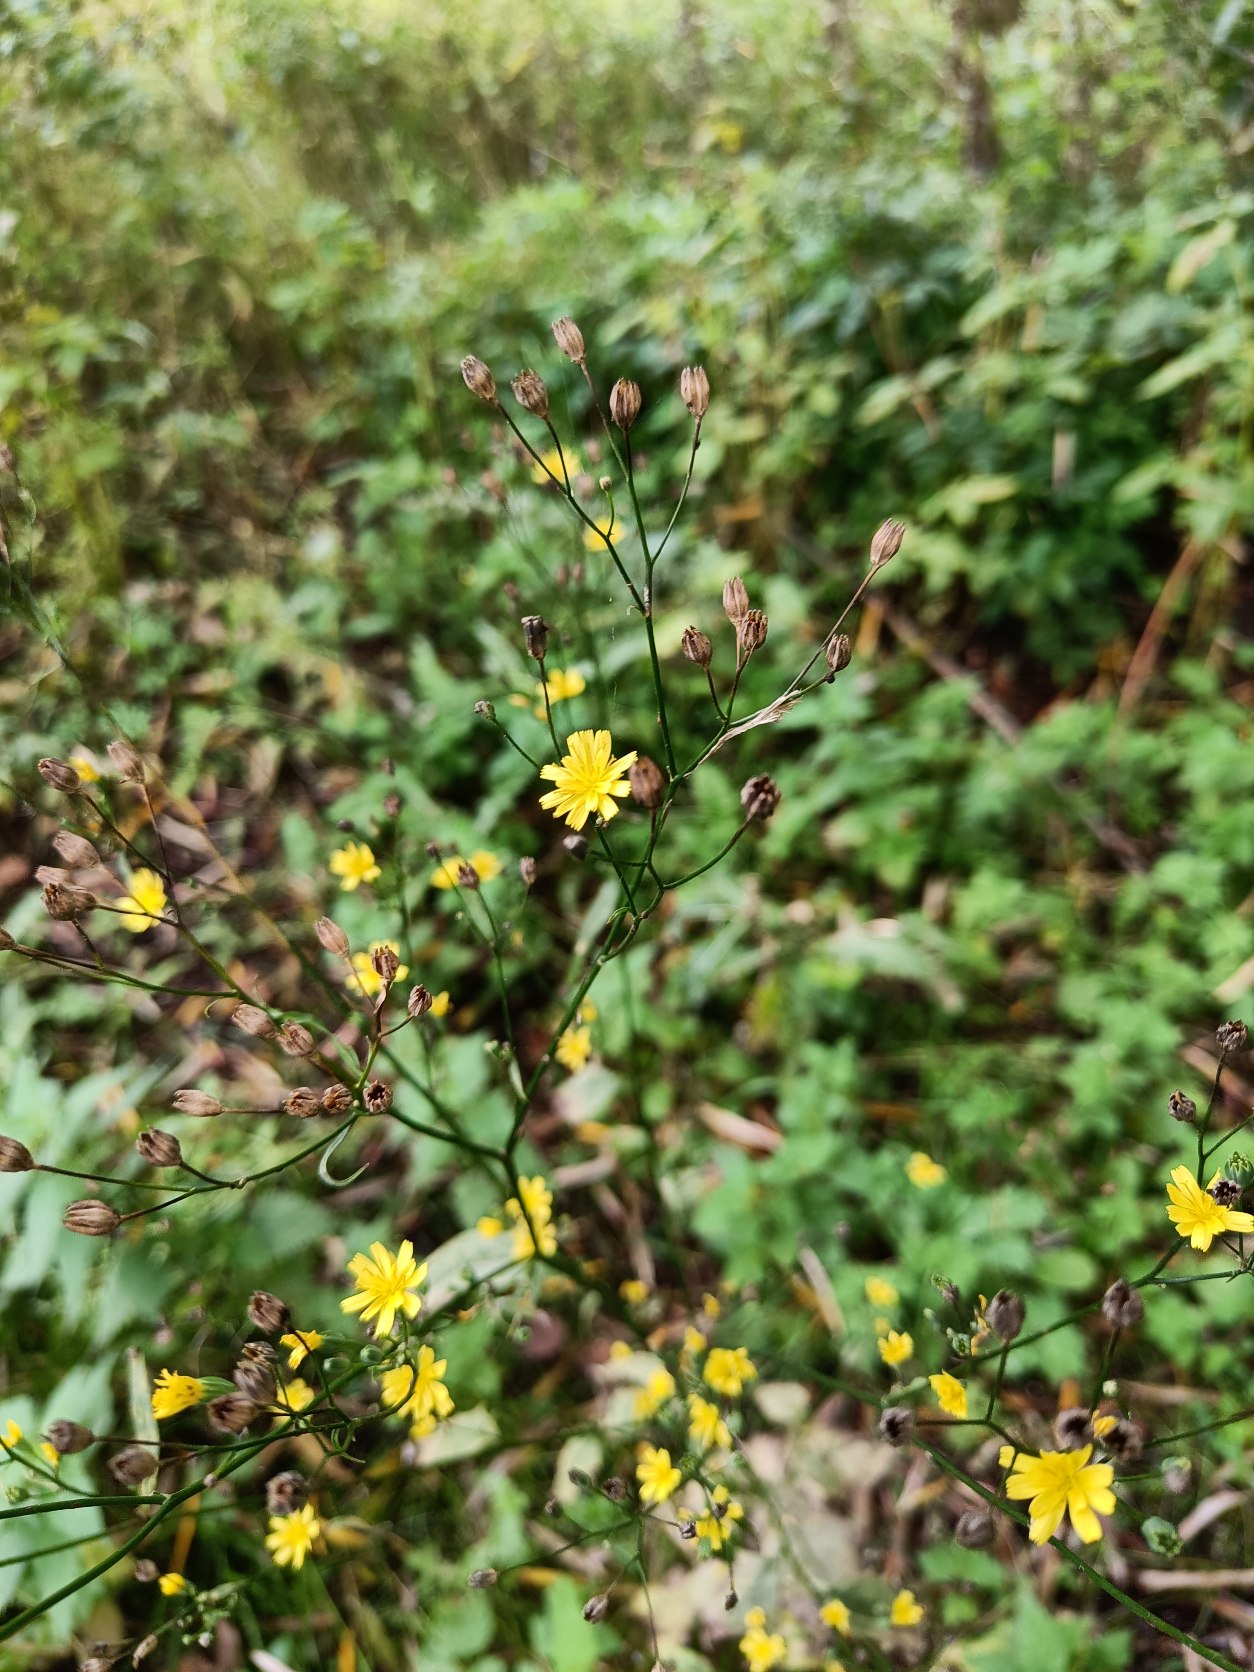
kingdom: Plantae
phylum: Tracheophyta
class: Magnoliopsida
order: Asterales
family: Asteraceae
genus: Lapsana
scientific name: Lapsana communis
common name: Haremad
